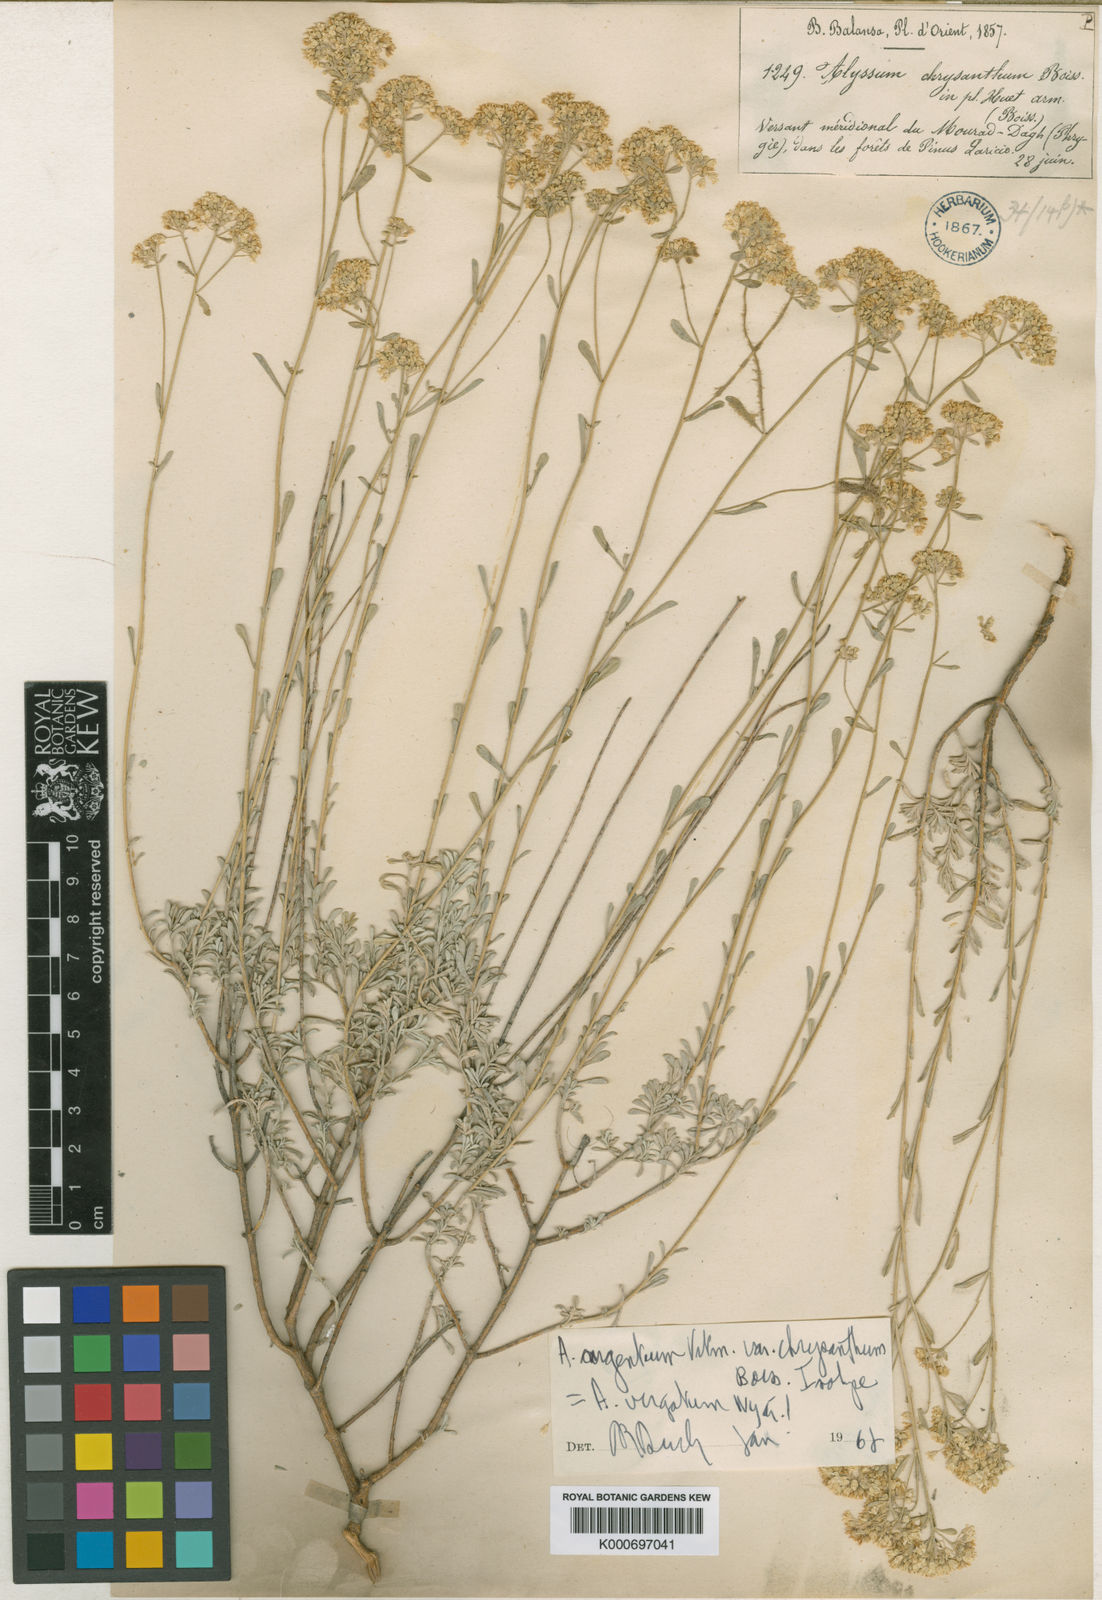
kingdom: Plantae
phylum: Tracheophyta
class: Magnoliopsida
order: Brassicales
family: Brassicaceae
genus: Odontarrhena
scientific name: Odontarrhena virgata
